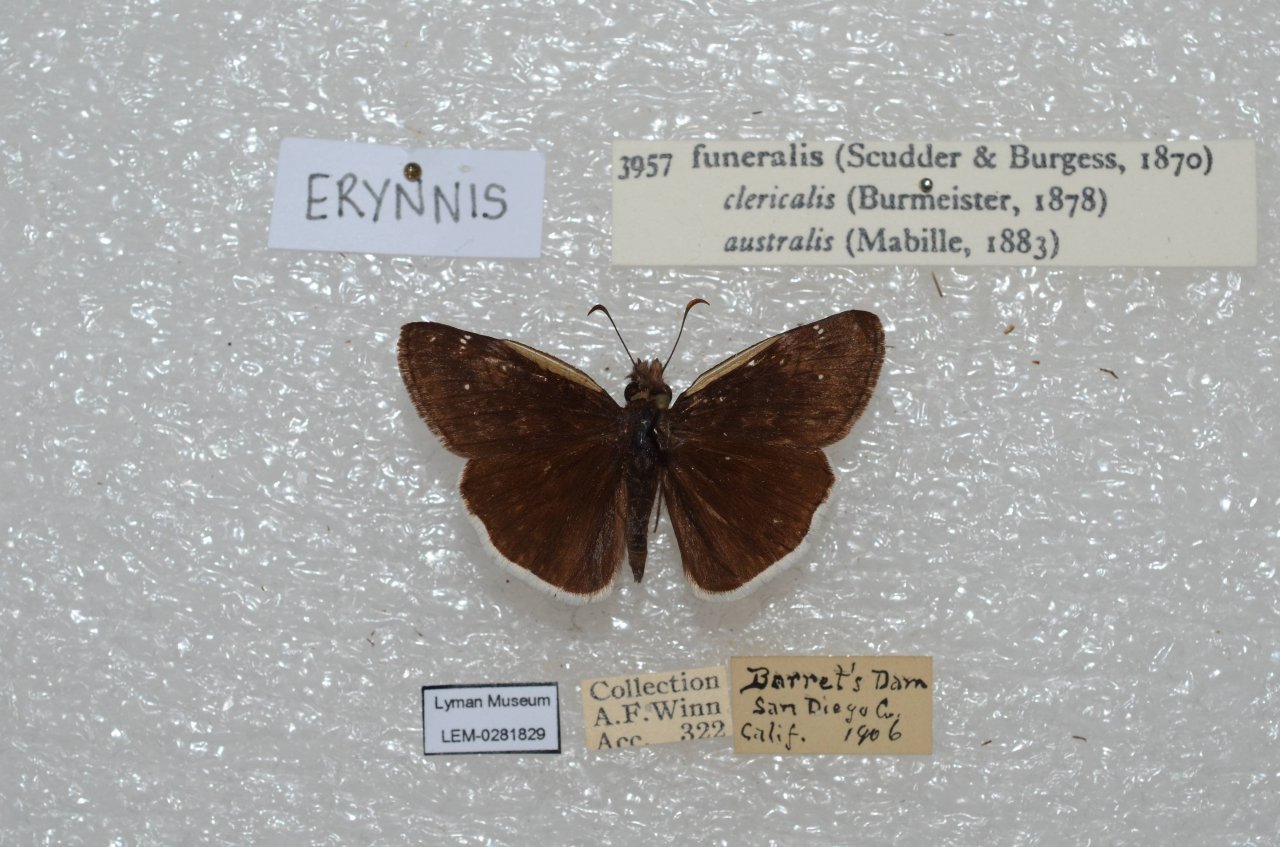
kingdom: Animalia
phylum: Arthropoda
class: Insecta
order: Lepidoptera
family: Hesperiidae
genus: Erynnis
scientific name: Erynnis funeralis
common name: Funereal Duskywing
